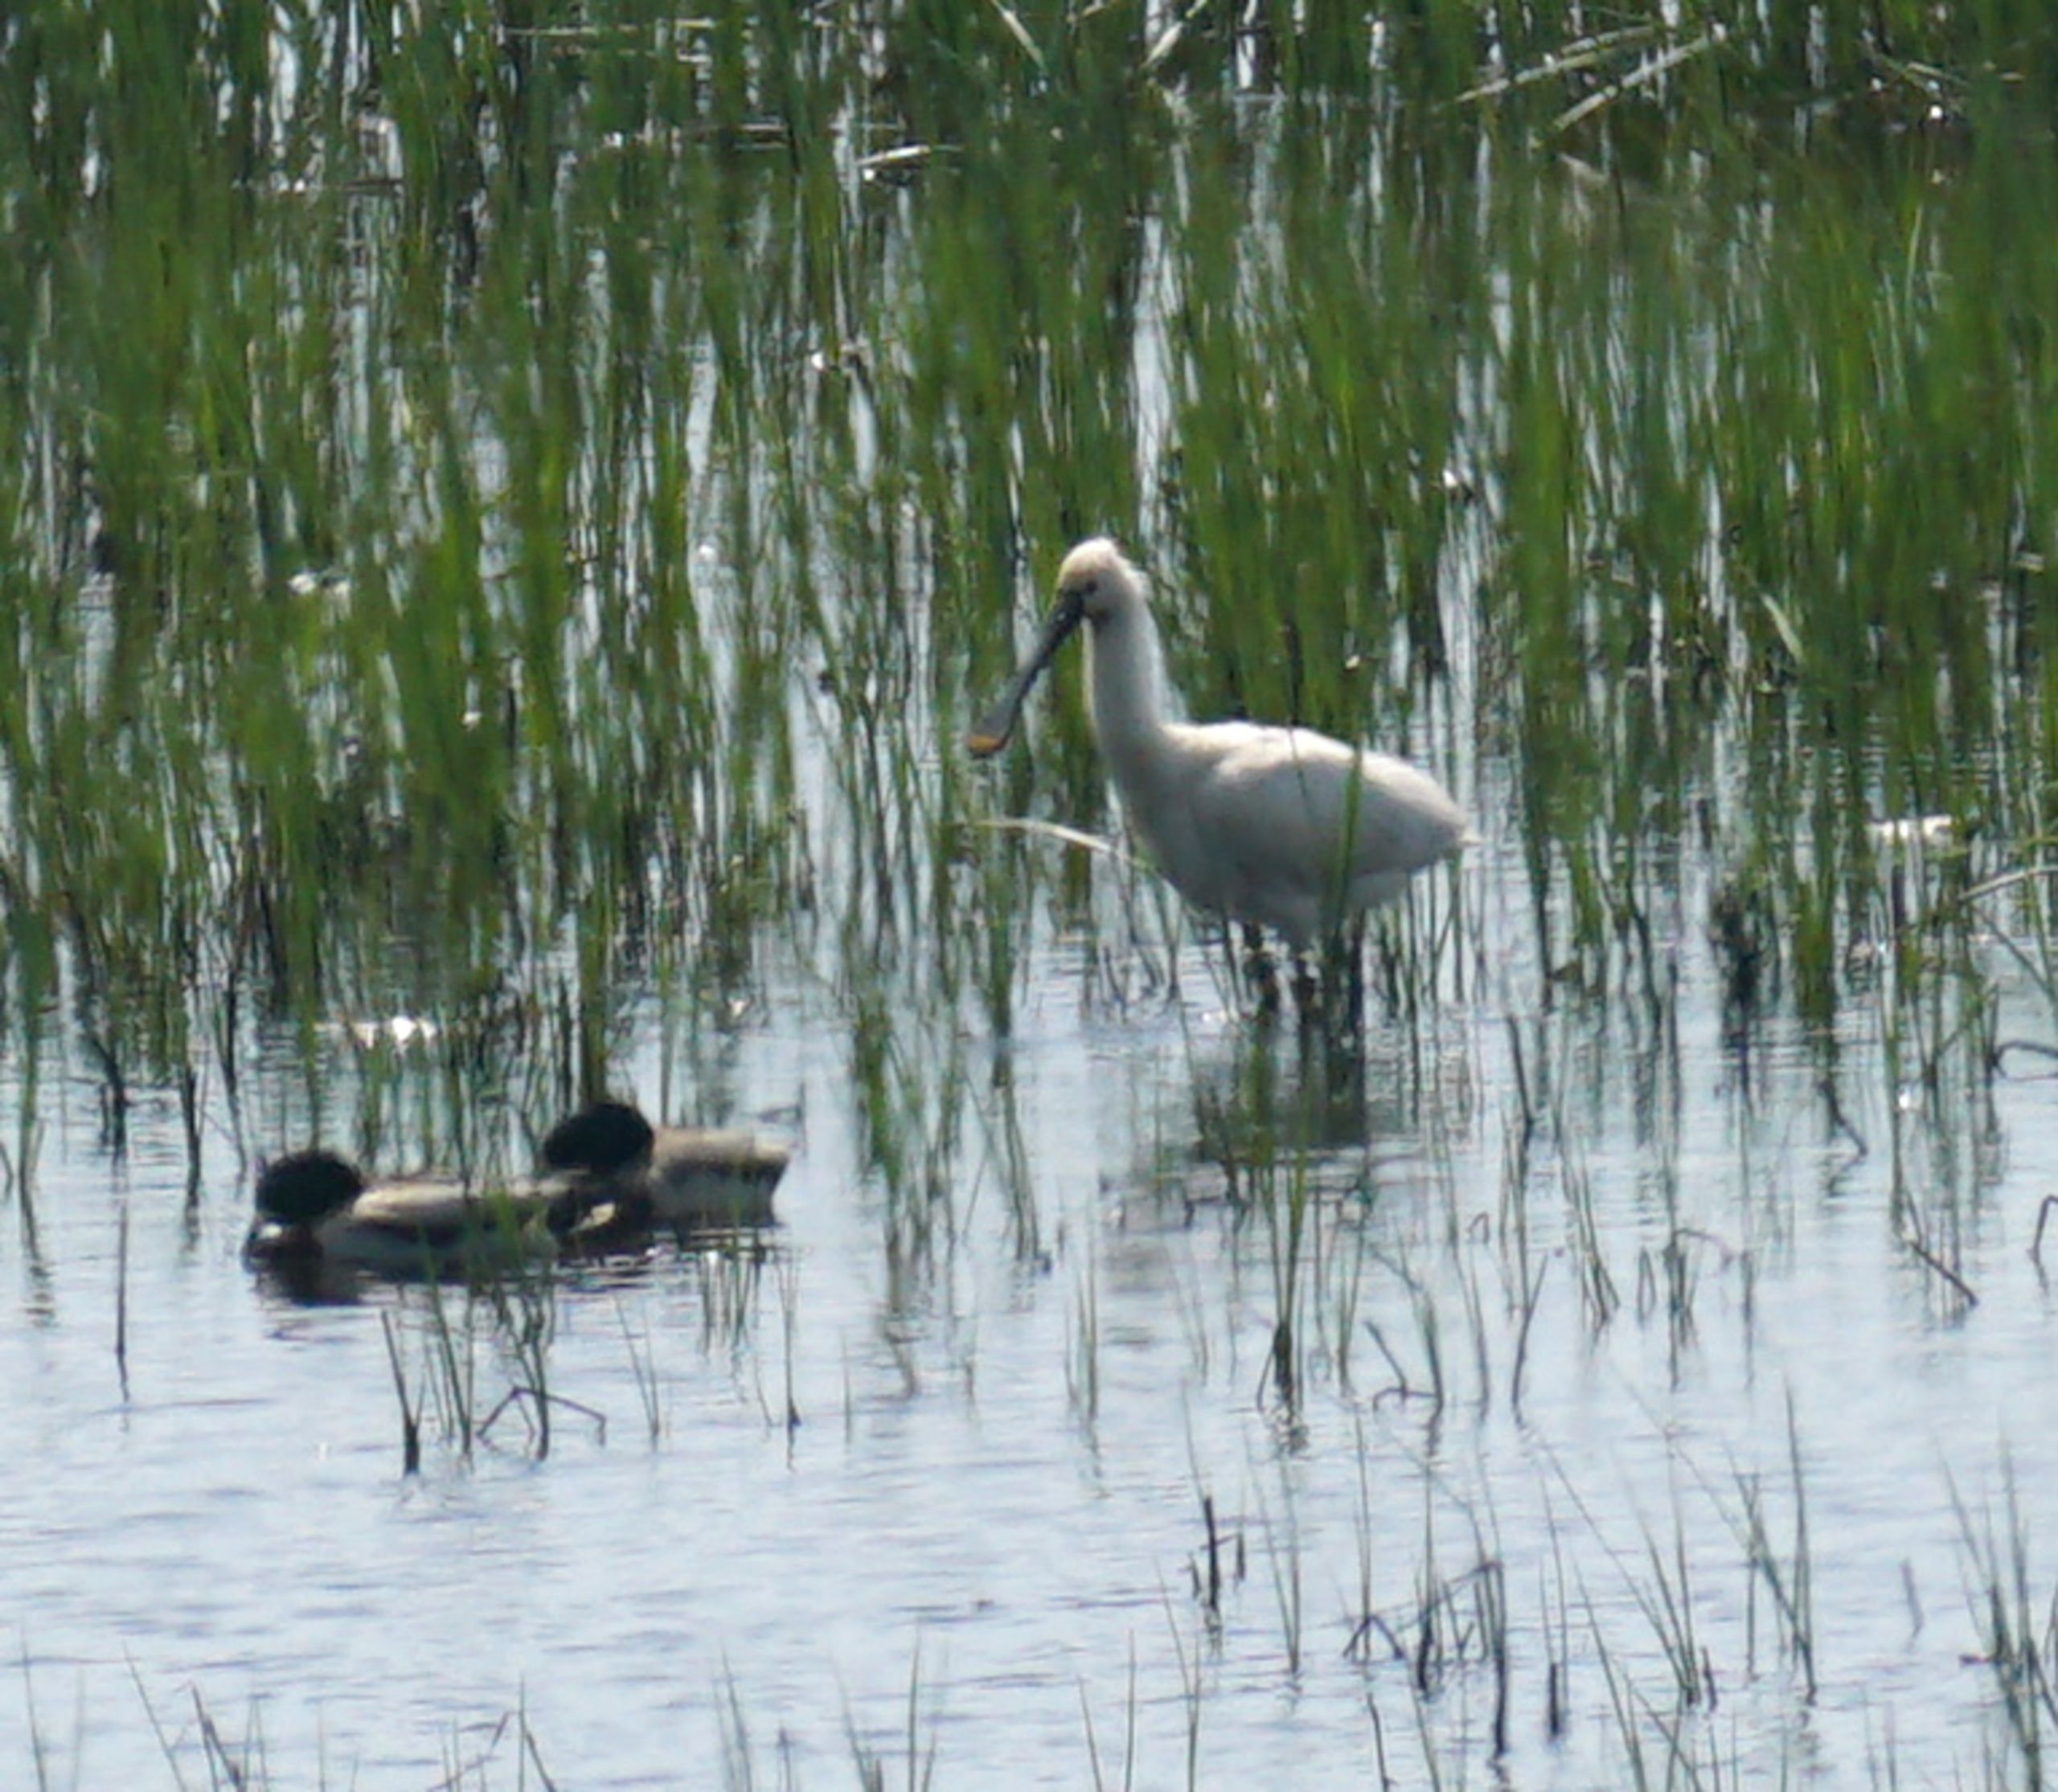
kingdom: Animalia
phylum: Chordata
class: Aves
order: Pelecaniformes
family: Threskiornithidae
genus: Platalea
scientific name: Platalea leucorodia
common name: Skestork
